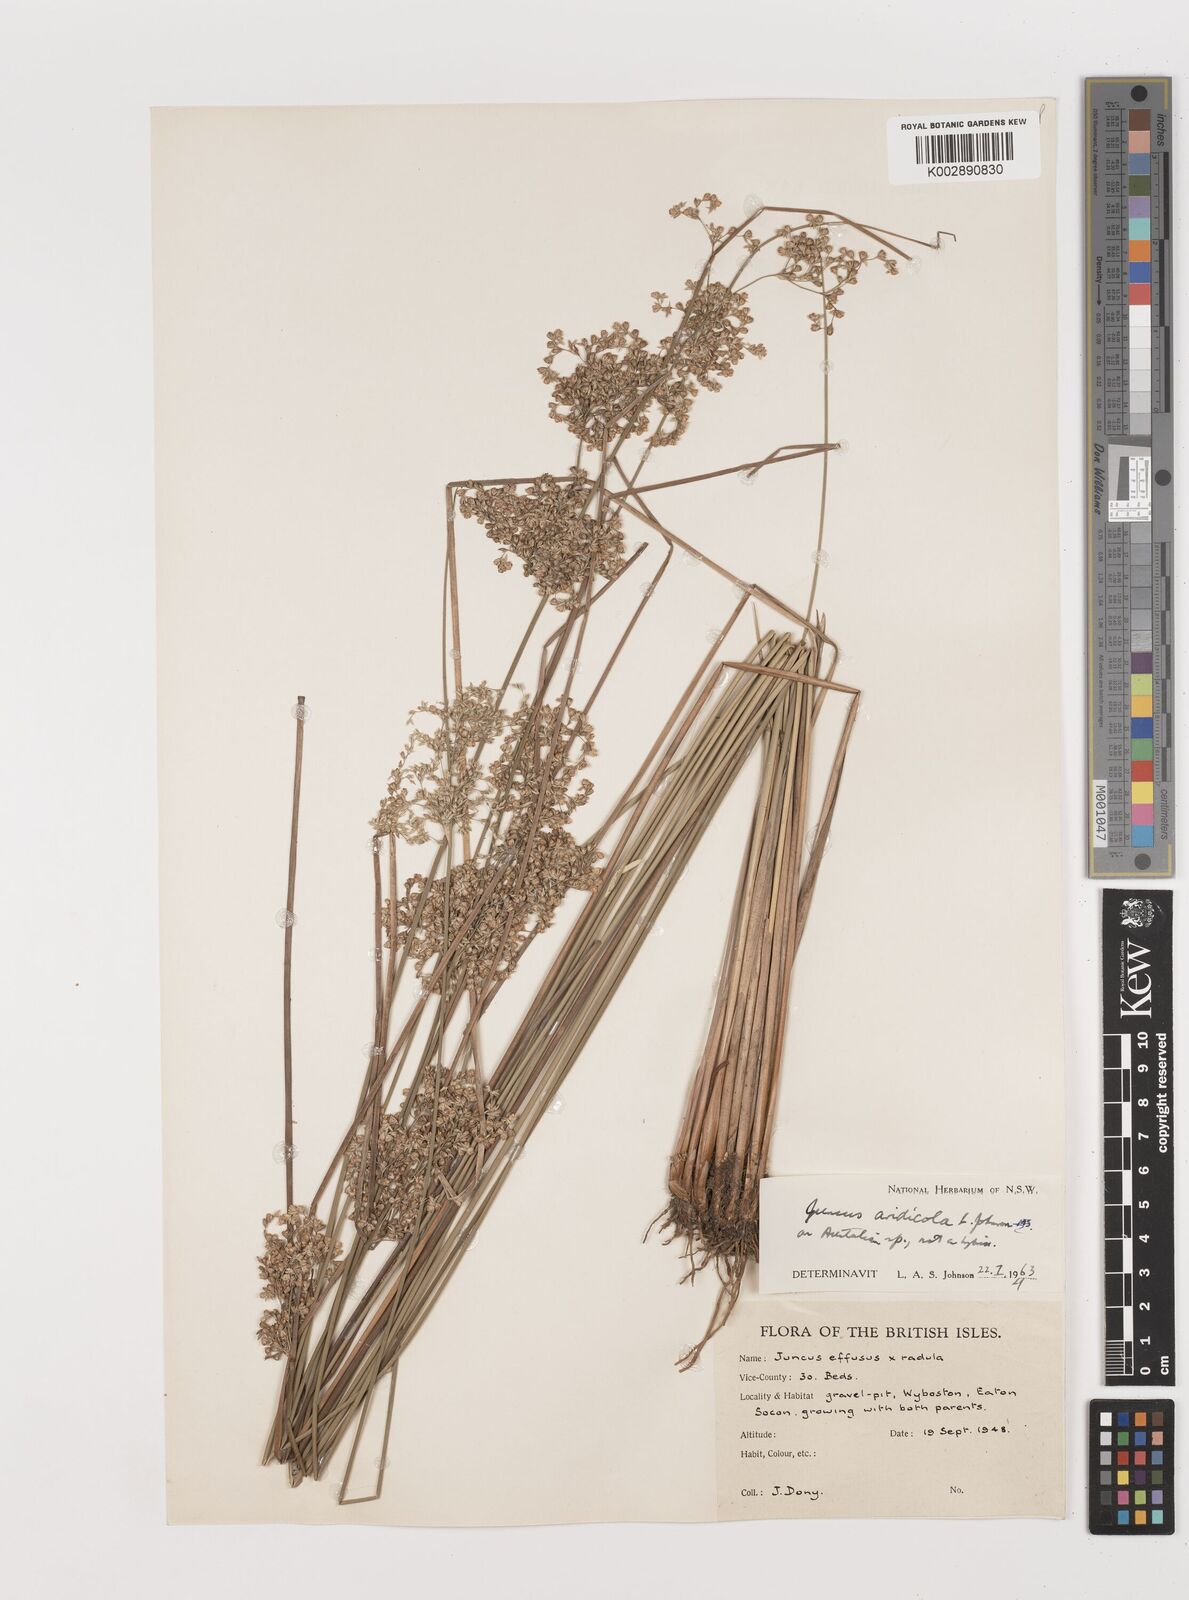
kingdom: Plantae
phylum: Tracheophyta
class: Liliopsida
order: Poales
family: Juncaceae
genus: Juncus
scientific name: Juncus aridicola
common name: Tussock rush
